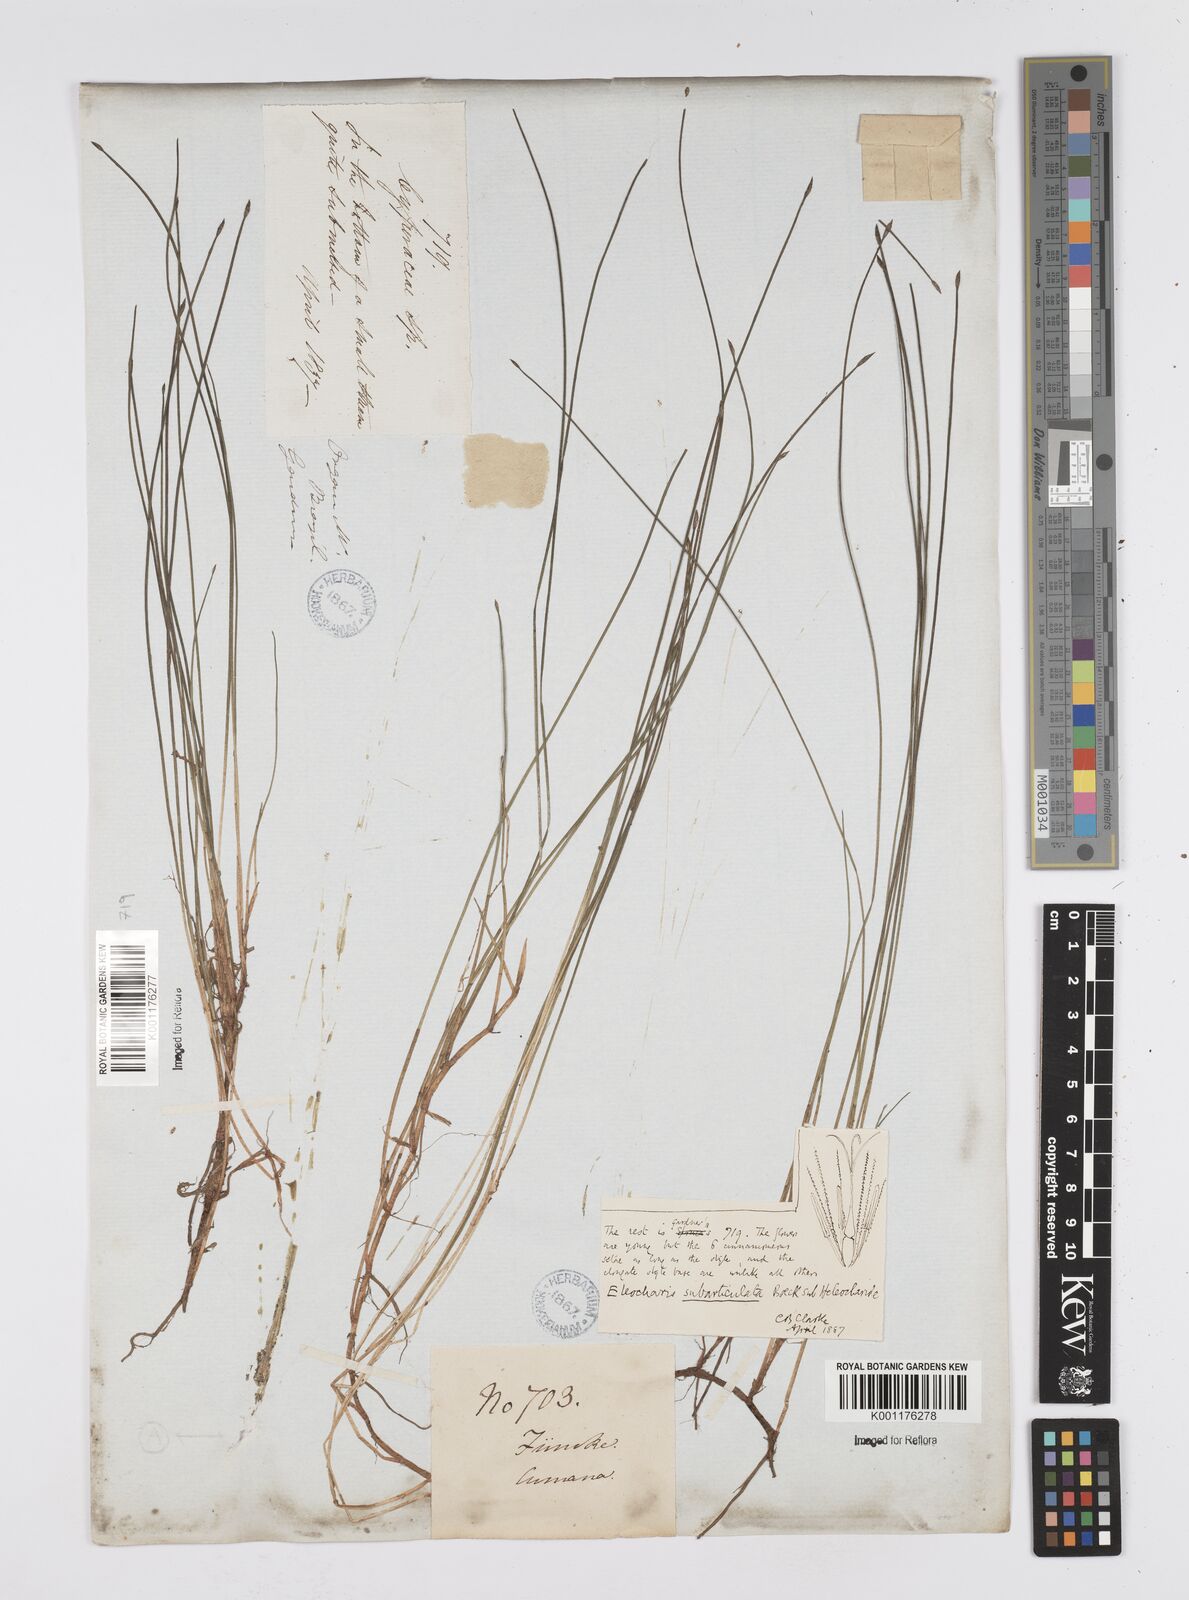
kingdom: Plantae
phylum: Tracheophyta
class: Liliopsida
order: Poales
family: Cyperaceae
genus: Eleocharis
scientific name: Eleocharis subarticulata
